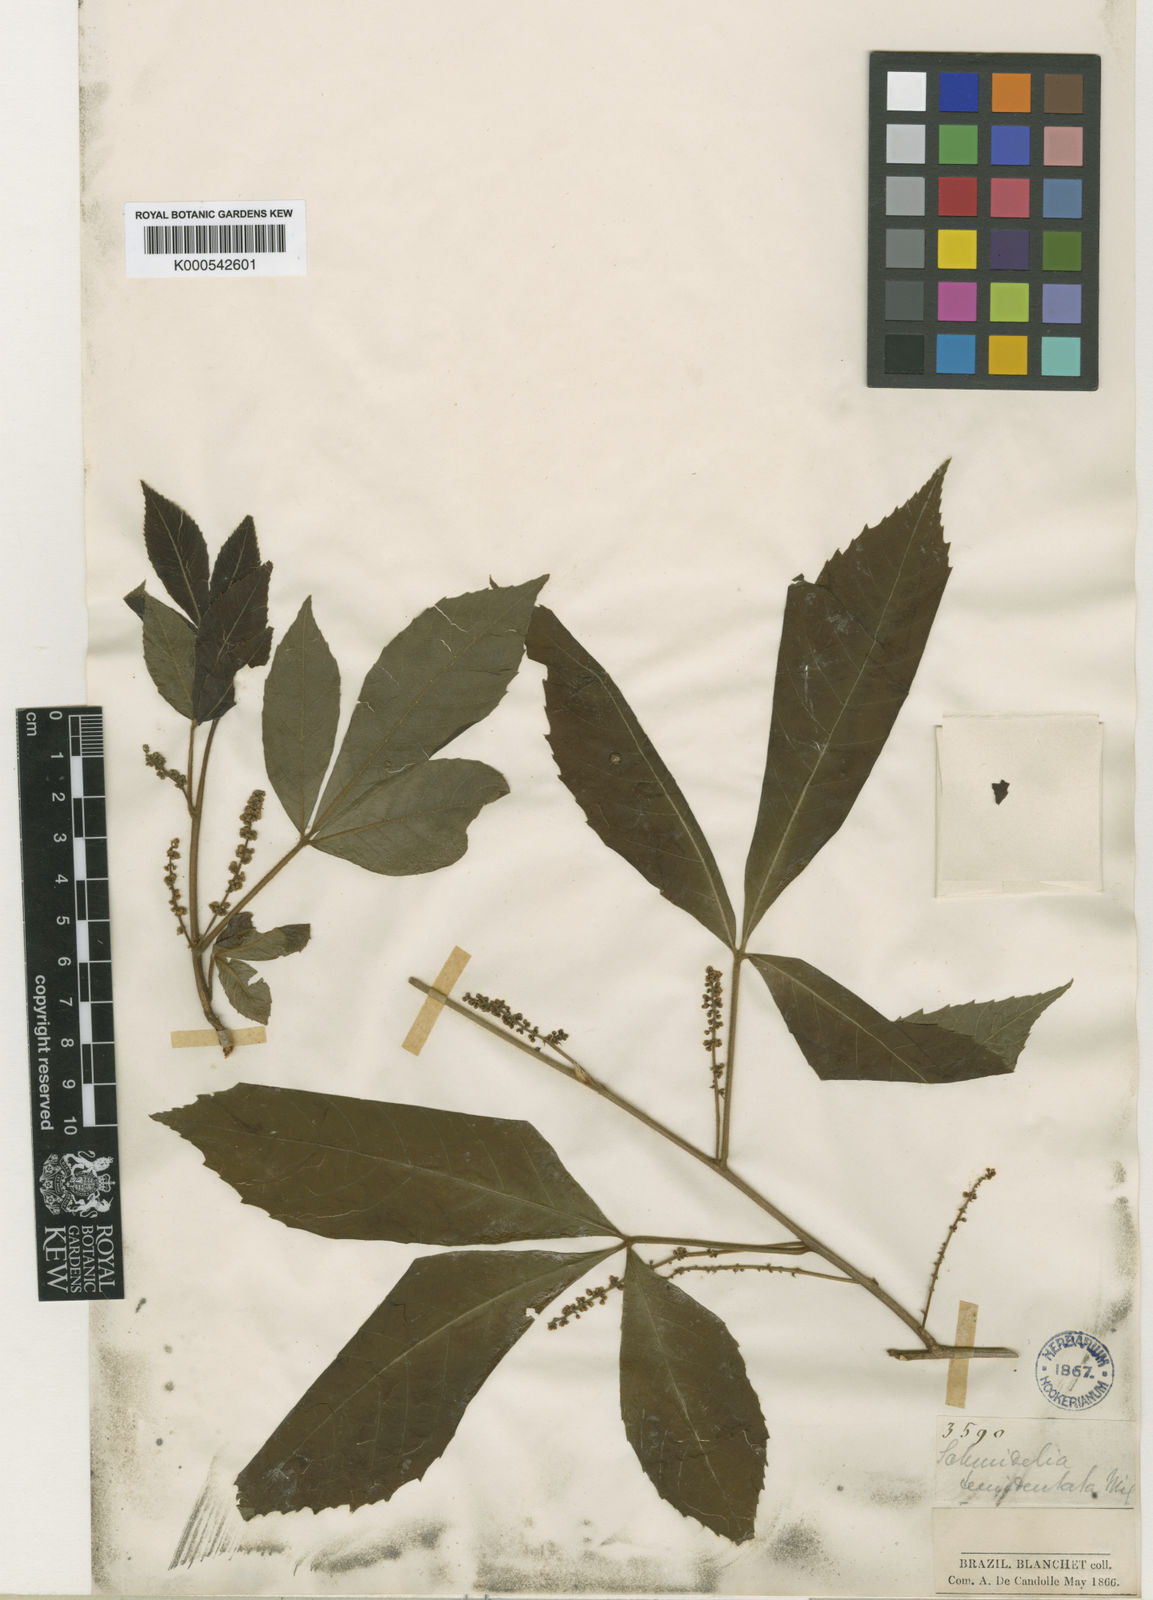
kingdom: Plantae
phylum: Tracheophyta
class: Magnoliopsida
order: Sapindales
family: Sapindaceae
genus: Allophylus
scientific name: Allophylus semidentatus
